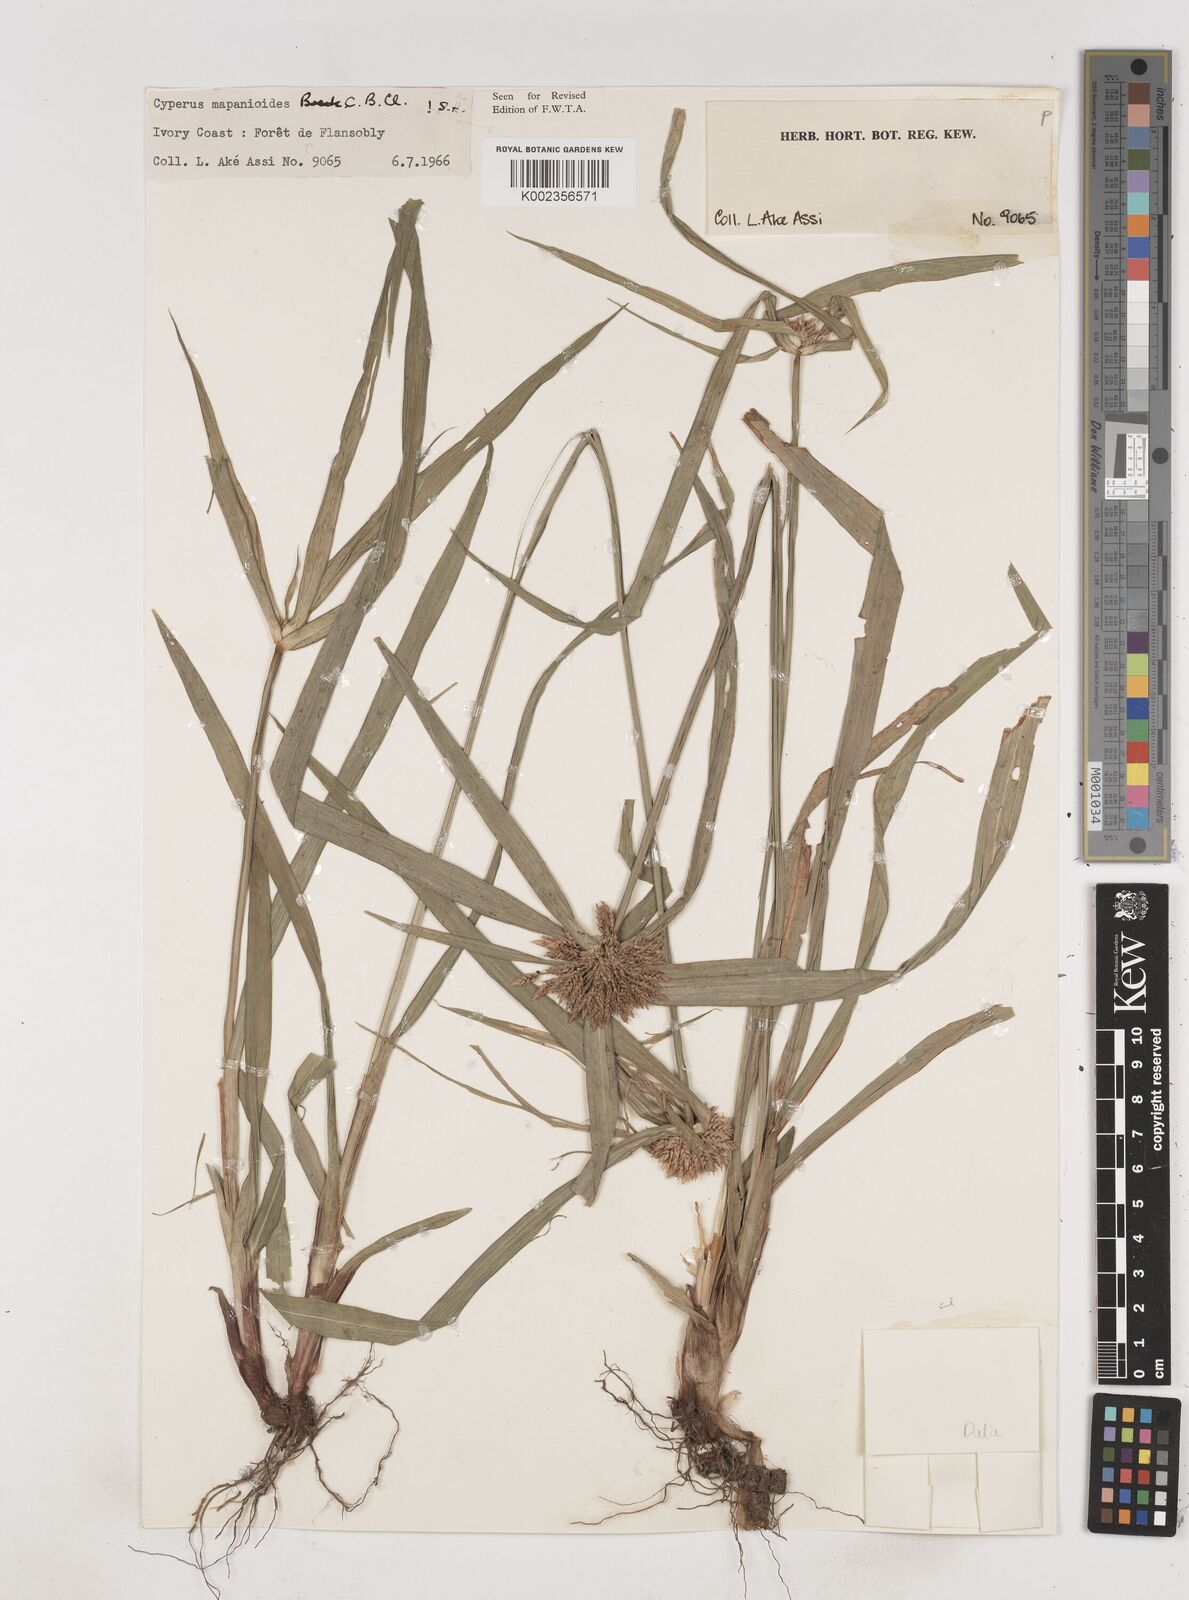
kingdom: Plantae
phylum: Tracheophyta
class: Liliopsida
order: Poales
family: Cyperaceae
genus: Cyperus
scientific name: Cyperus mapanioides
